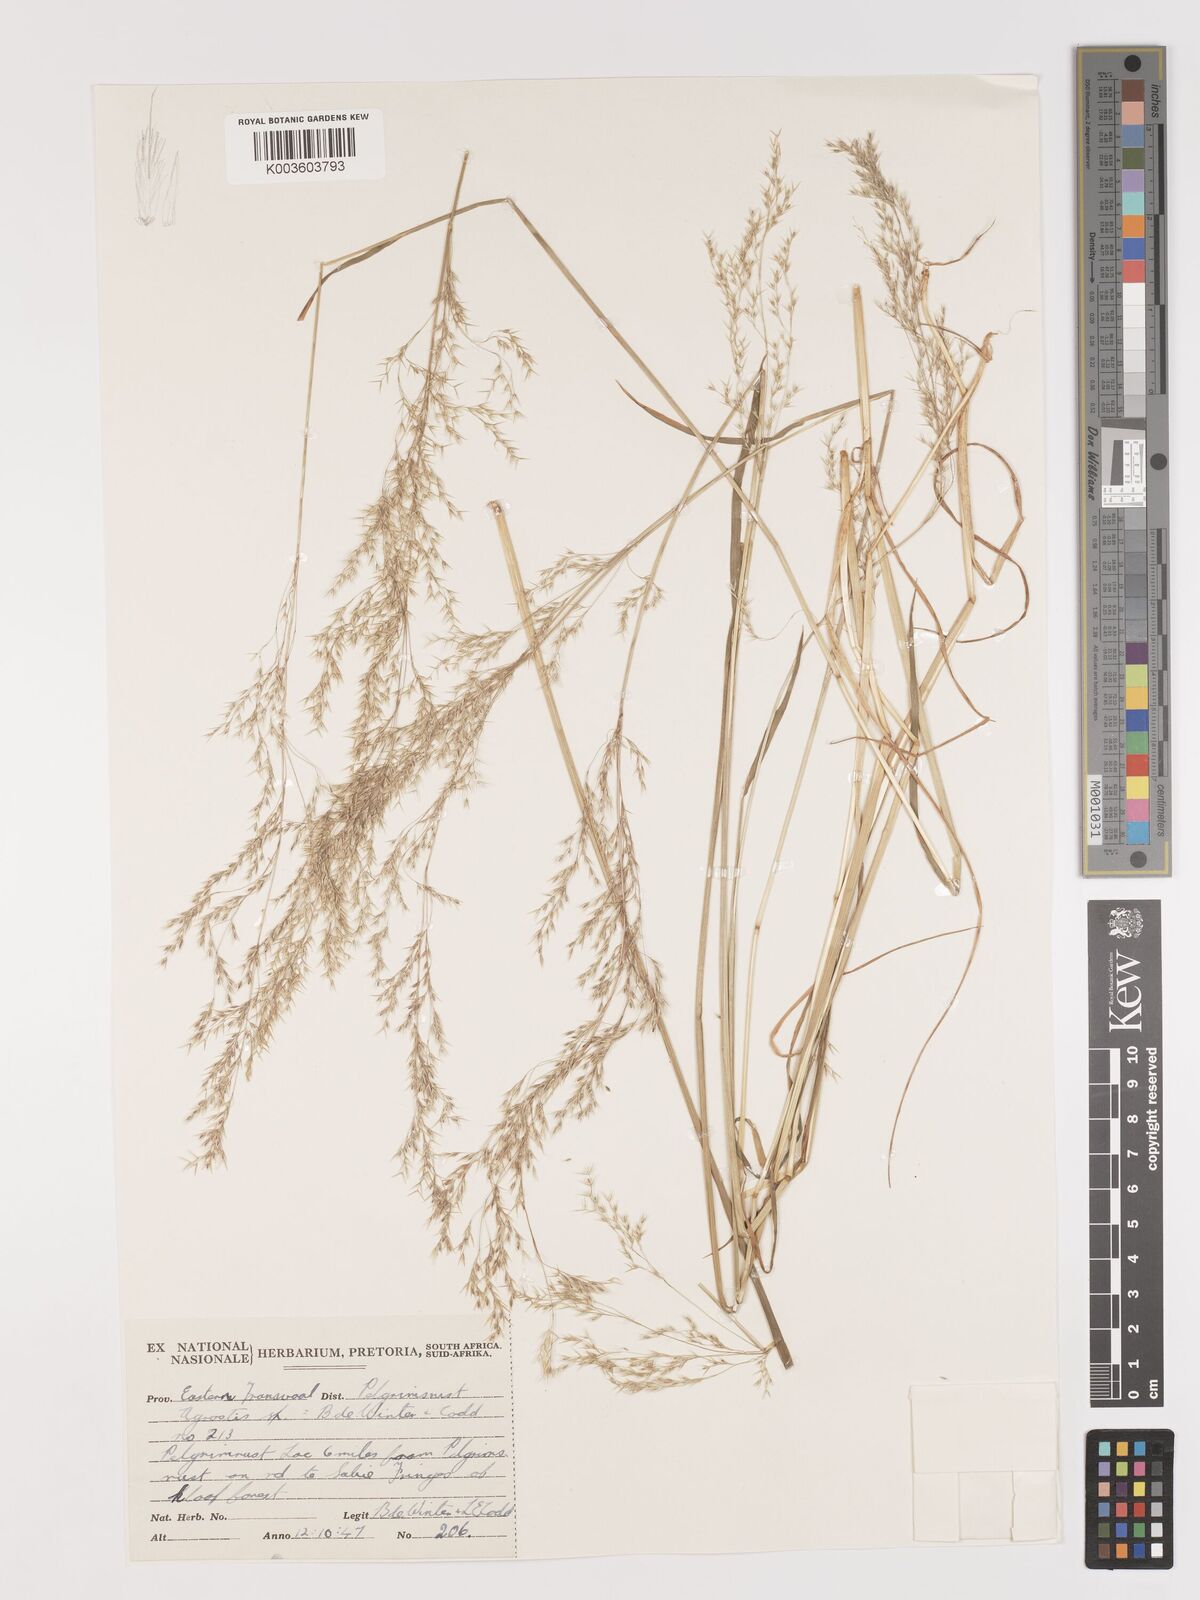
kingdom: Plantae
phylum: Tracheophyta
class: Liliopsida
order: Poales
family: Poaceae
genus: Lachnagrostis
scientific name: Lachnagrostis lachnantha
